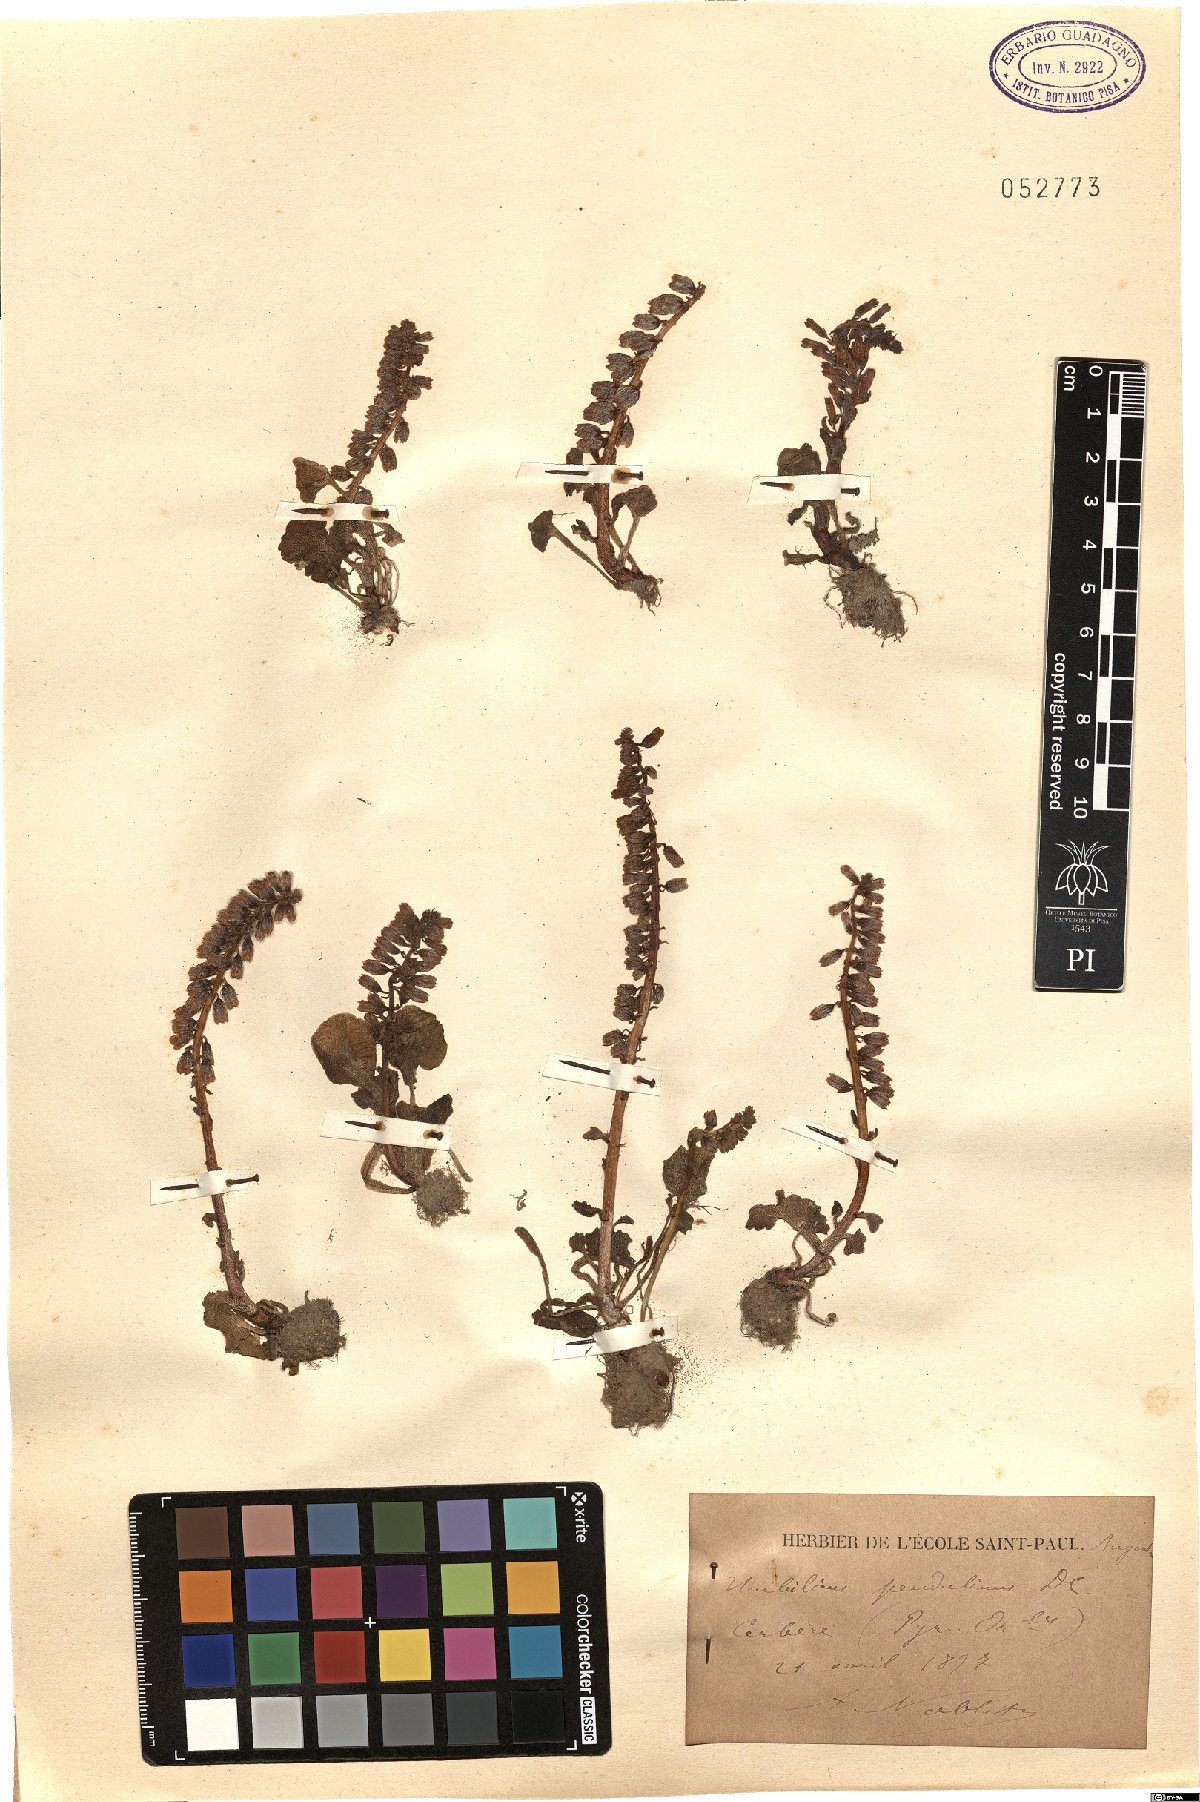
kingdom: Plantae
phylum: Tracheophyta
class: Magnoliopsida
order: Saxifragales
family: Crassulaceae
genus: Umbilicus
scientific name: Umbilicus rupestris
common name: Navelwort
